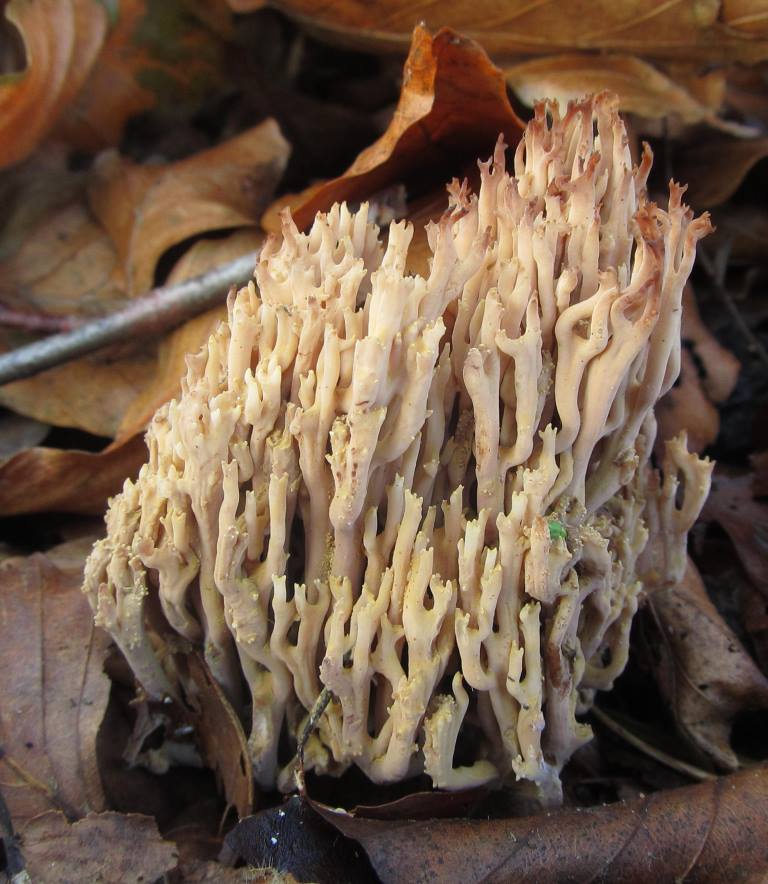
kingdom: Fungi
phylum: Basidiomycota
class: Agaricomycetes
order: Gomphales
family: Gomphaceae
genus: Ramaria
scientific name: Ramaria stricta
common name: rank koralsvamp
